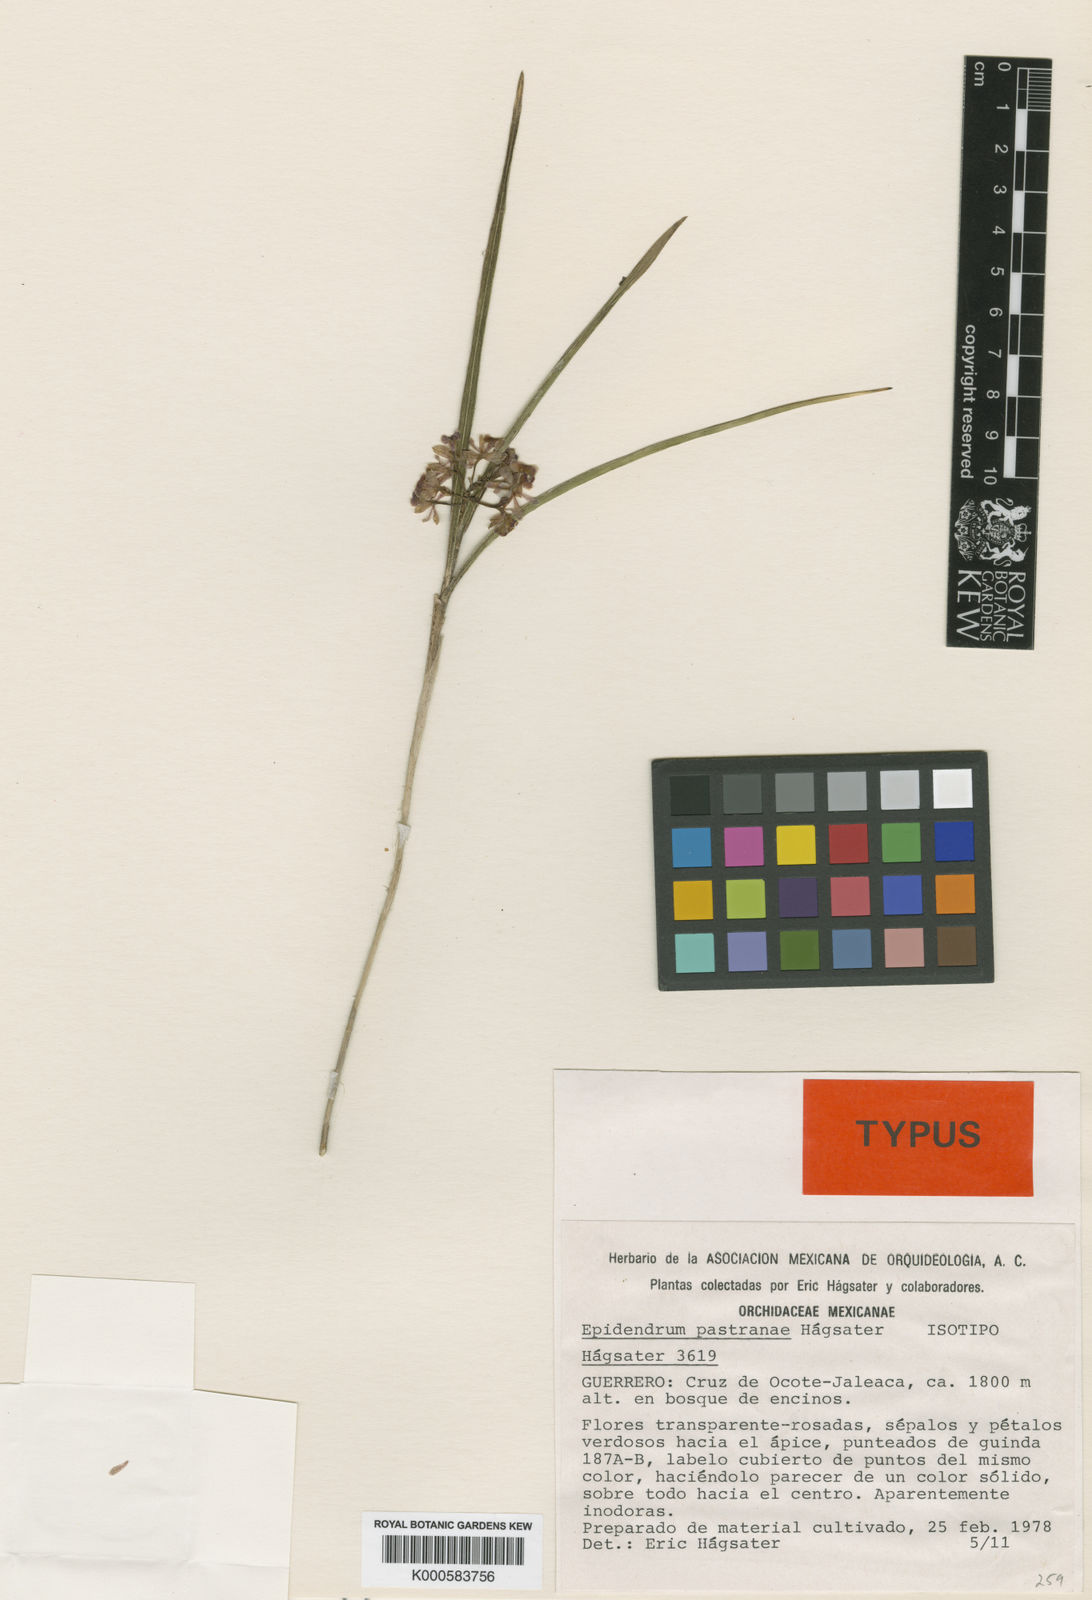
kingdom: Plantae
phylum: Tracheophyta
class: Liliopsida
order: Asparagales
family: Orchidaceae
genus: Epidendrum
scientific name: Epidendrum
